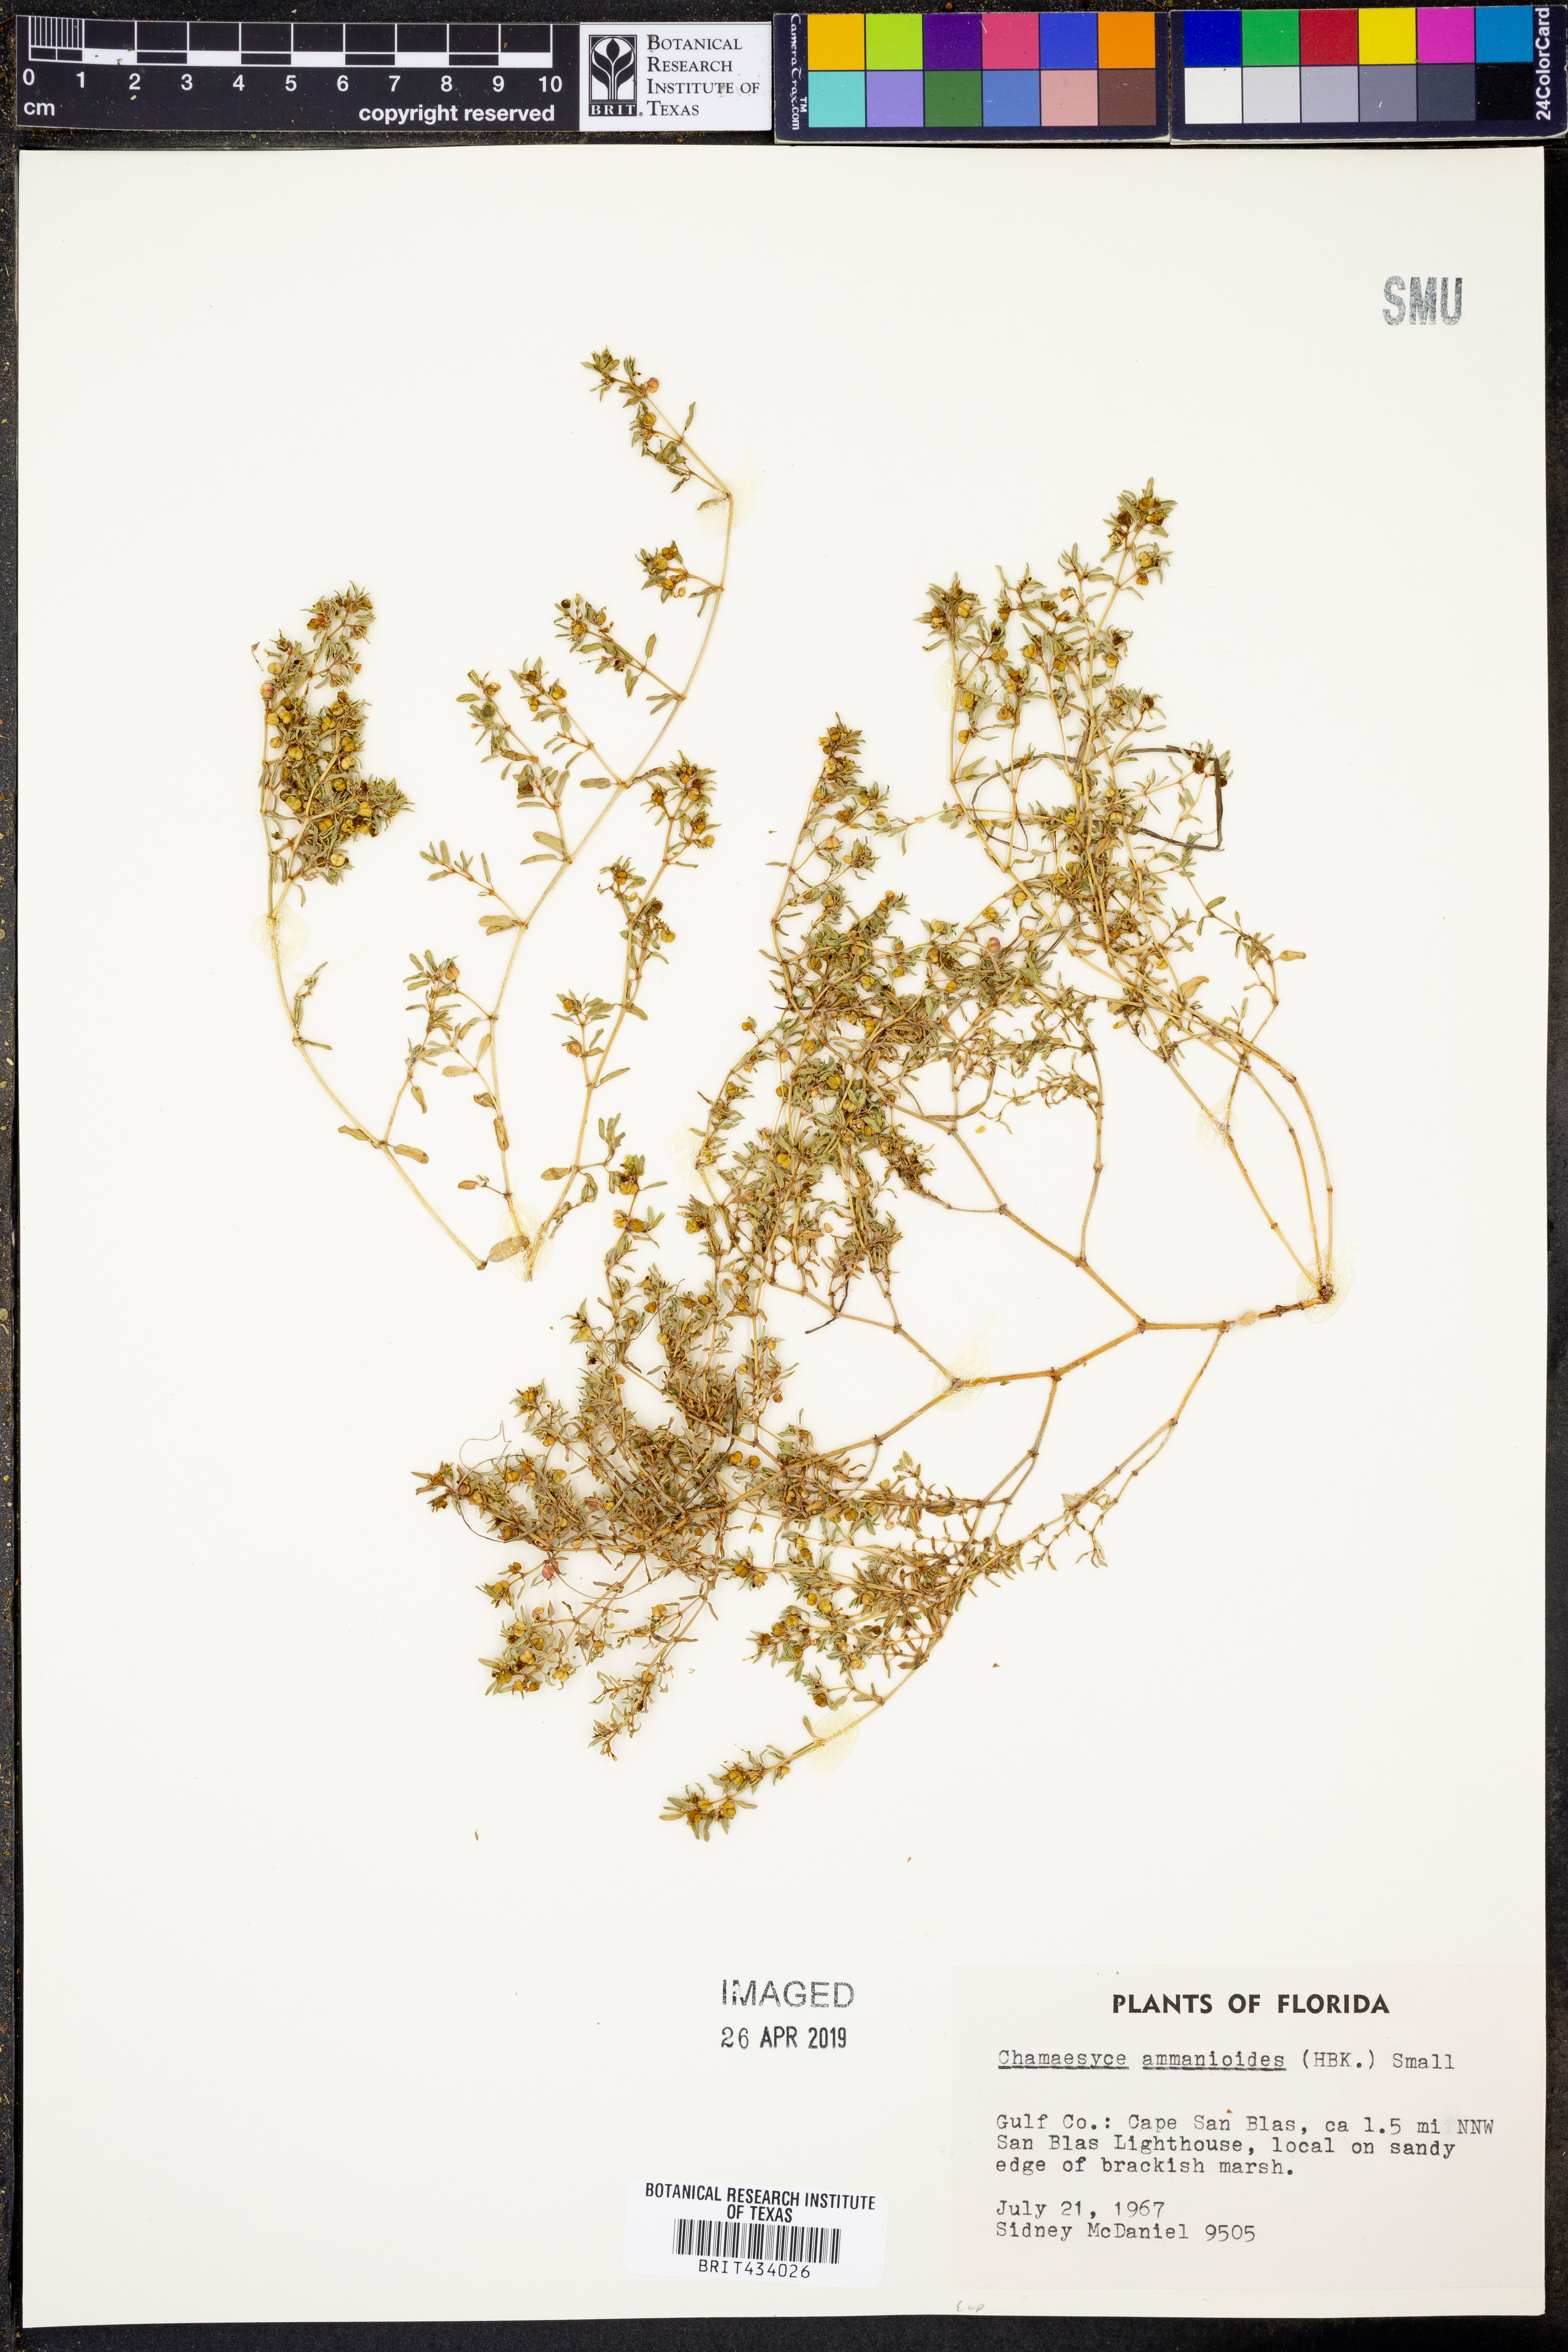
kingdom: Plantae
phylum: Tracheophyta
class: Magnoliopsida
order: Malpighiales
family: Euphorbiaceae
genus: Euphorbia
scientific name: Euphorbia bombensis
